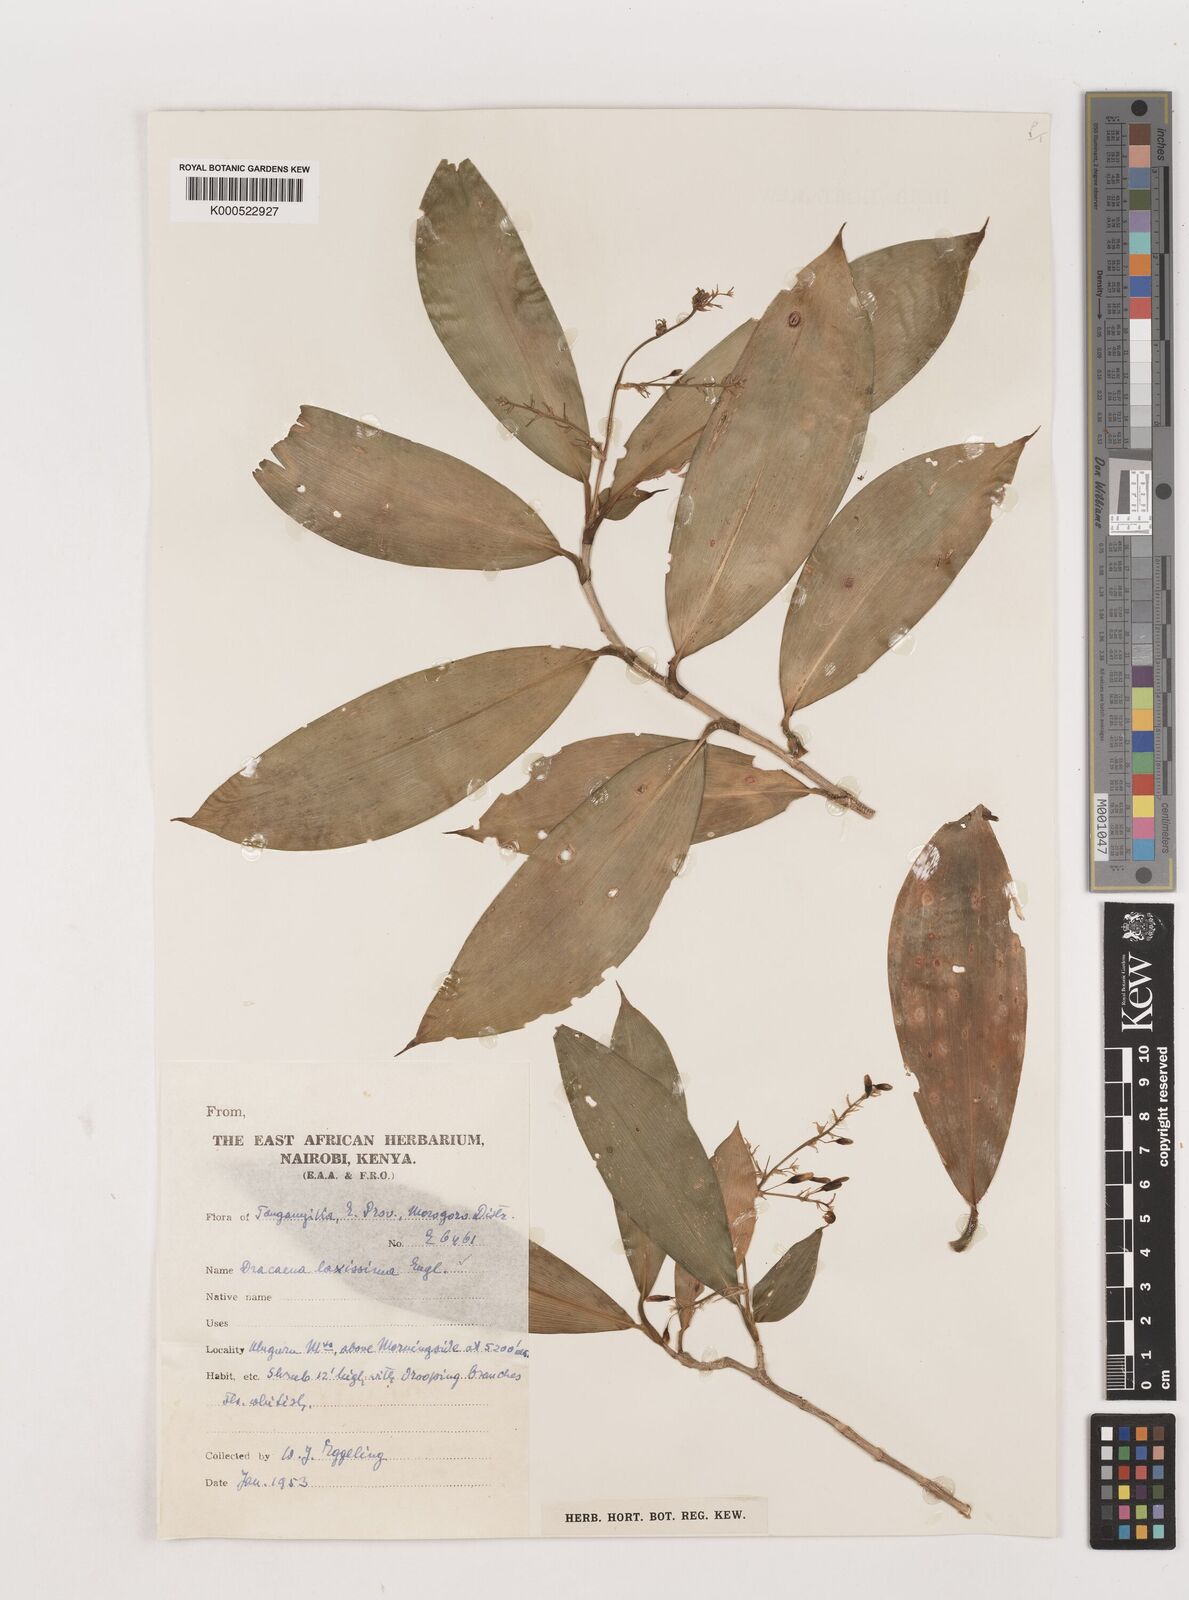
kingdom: Plantae
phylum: Tracheophyta
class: Liliopsida
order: Asparagales
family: Asparagaceae
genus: Dracaena
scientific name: Dracaena laxissima
